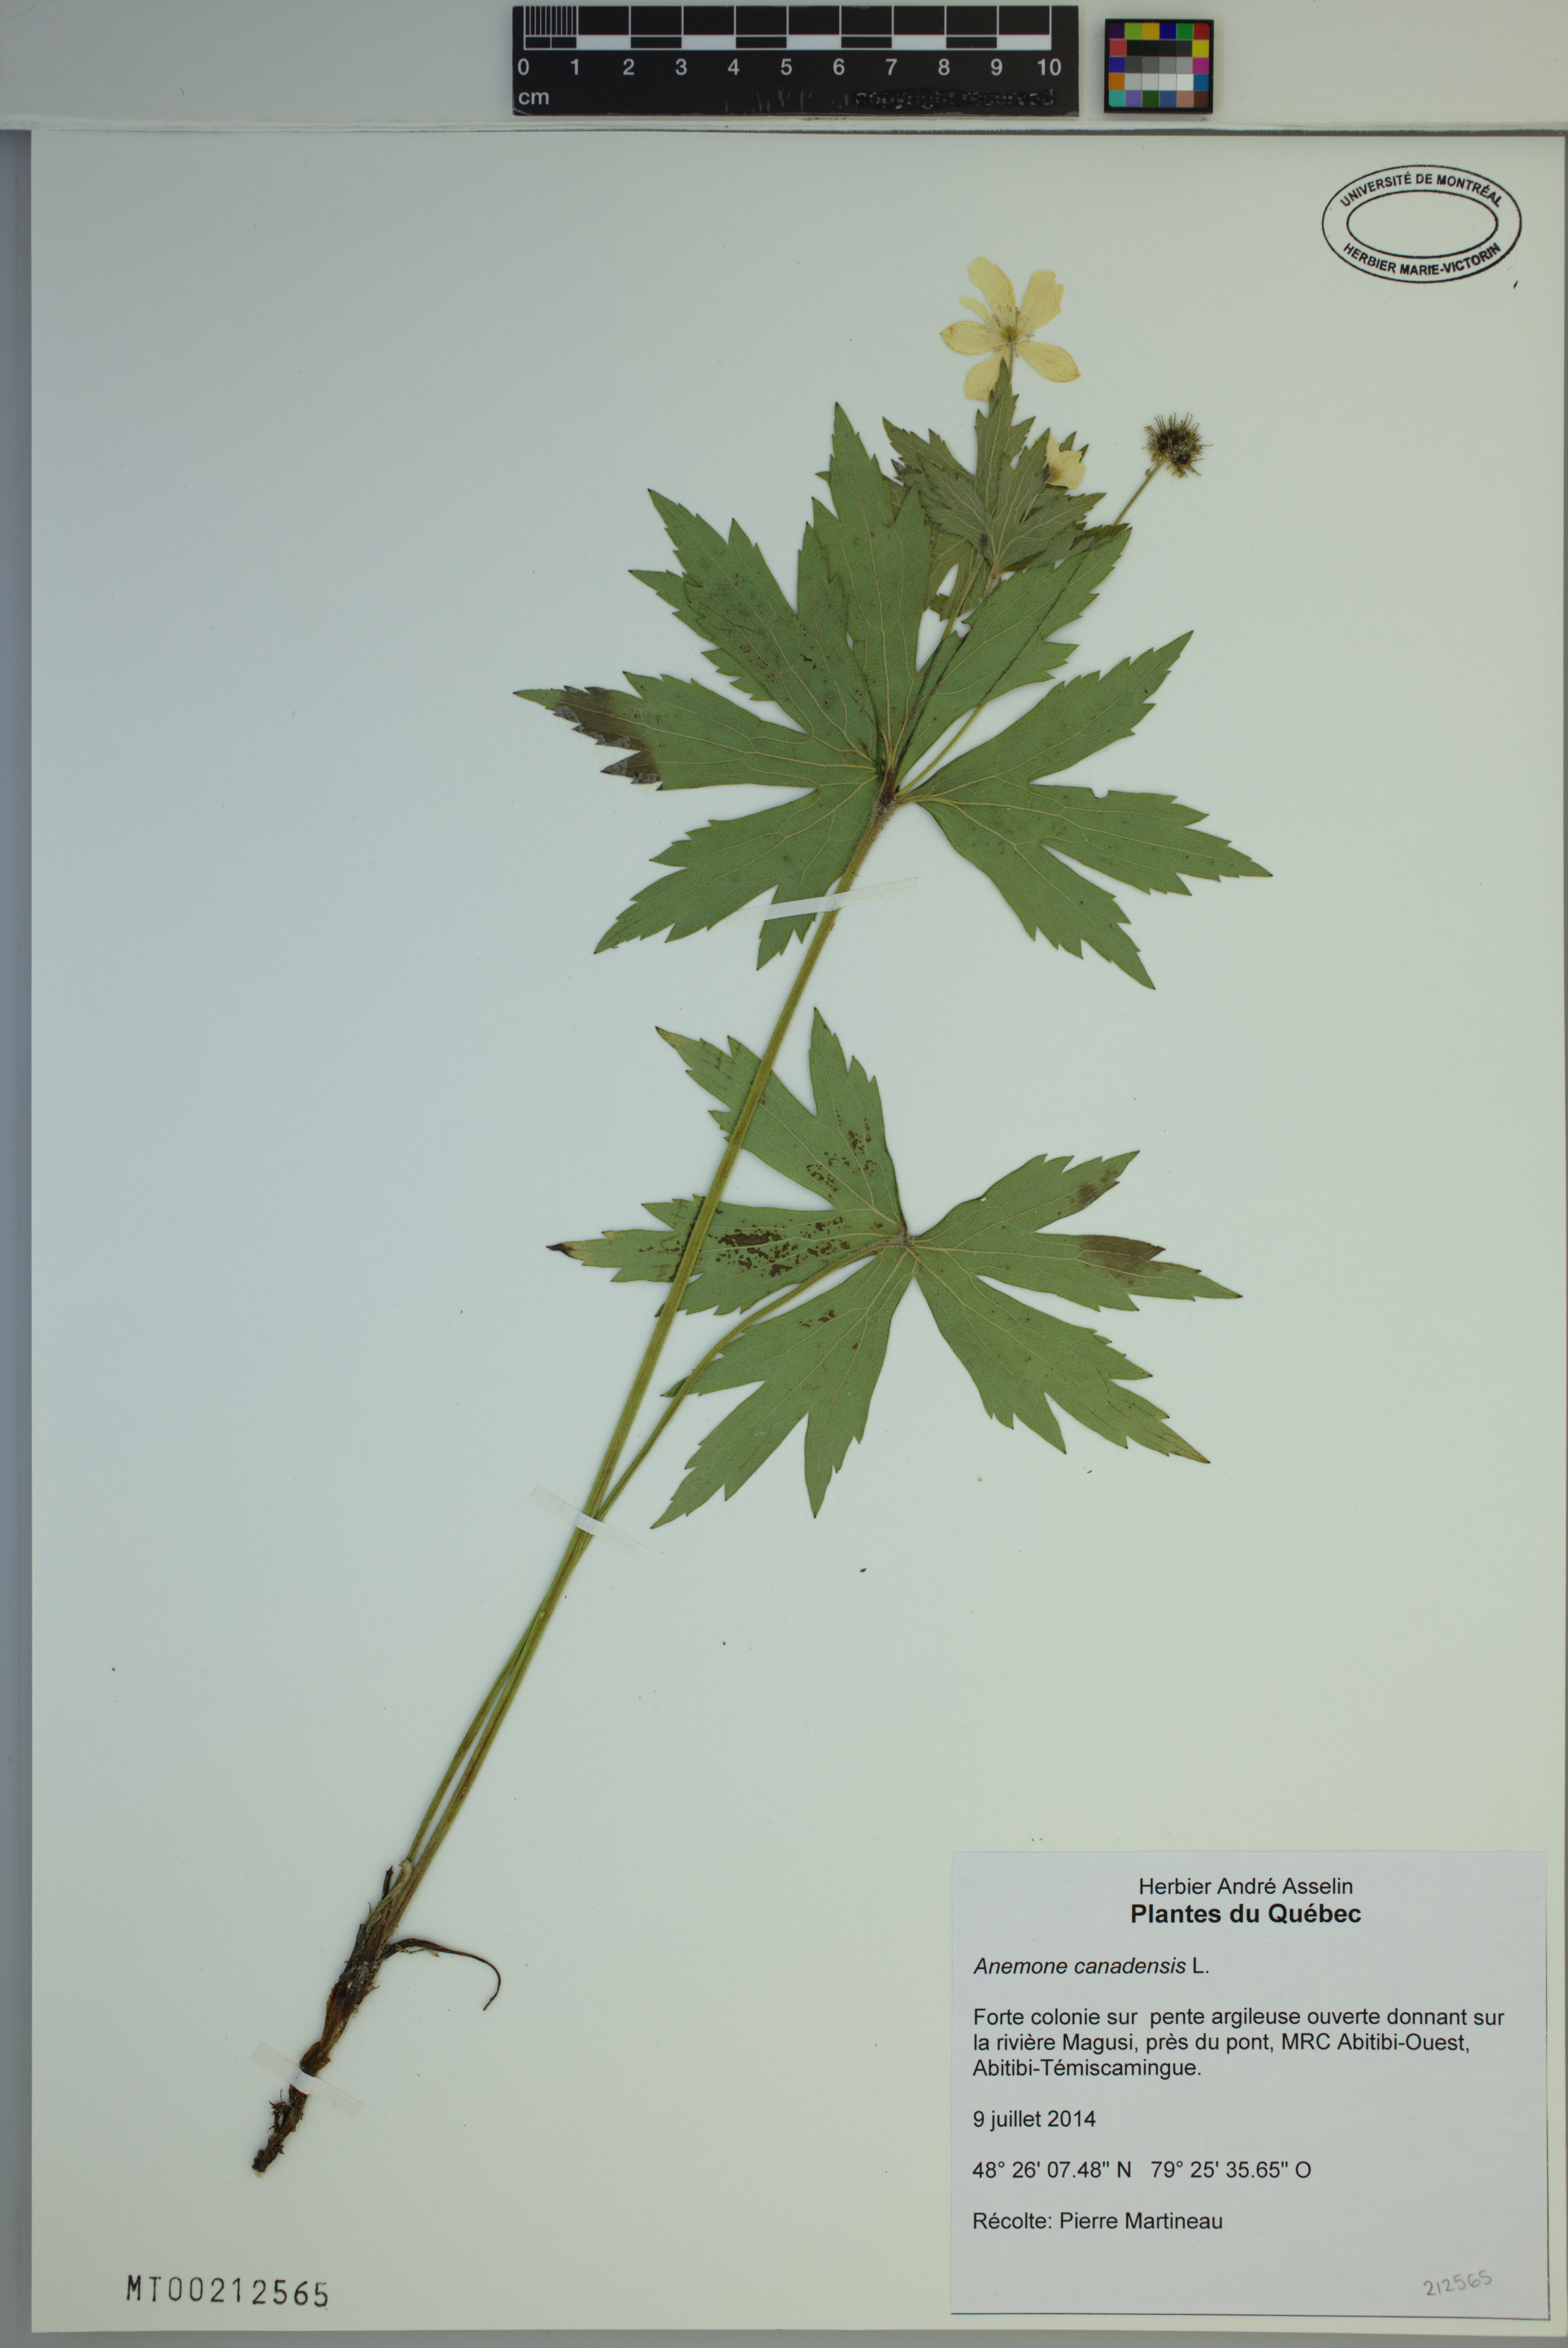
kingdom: Plantae
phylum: Tracheophyta
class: Magnoliopsida
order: Ranunculales
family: Ranunculaceae
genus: Anemonastrum
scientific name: Anemonastrum canadense
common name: Canada anemone
